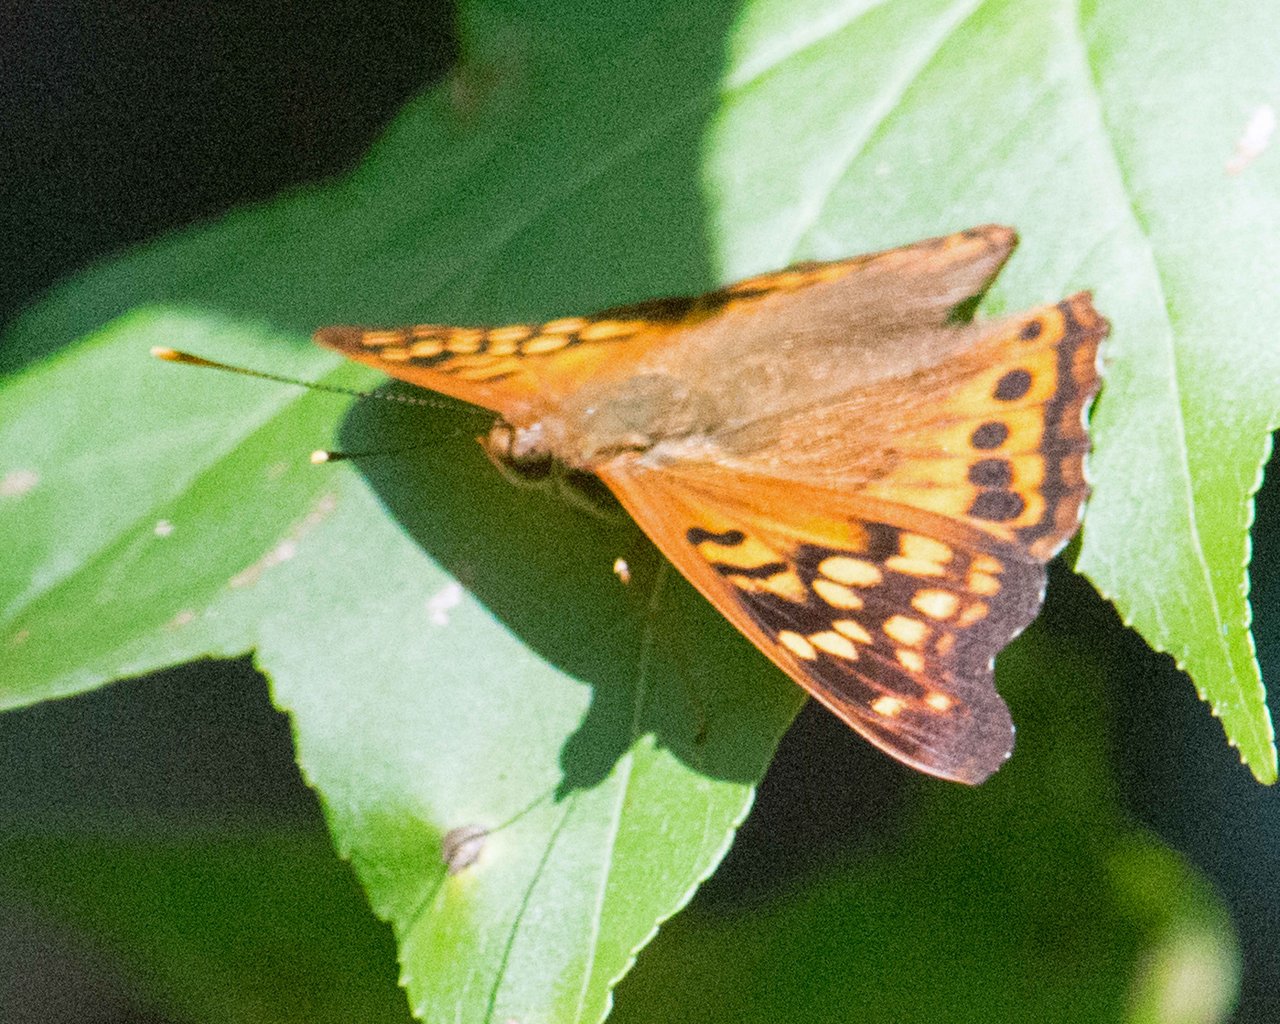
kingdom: Animalia
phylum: Arthropoda
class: Insecta
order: Lepidoptera
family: Nymphalidae
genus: Asterocampa
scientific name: Asterocampa clyton
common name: Tawny Emperor
